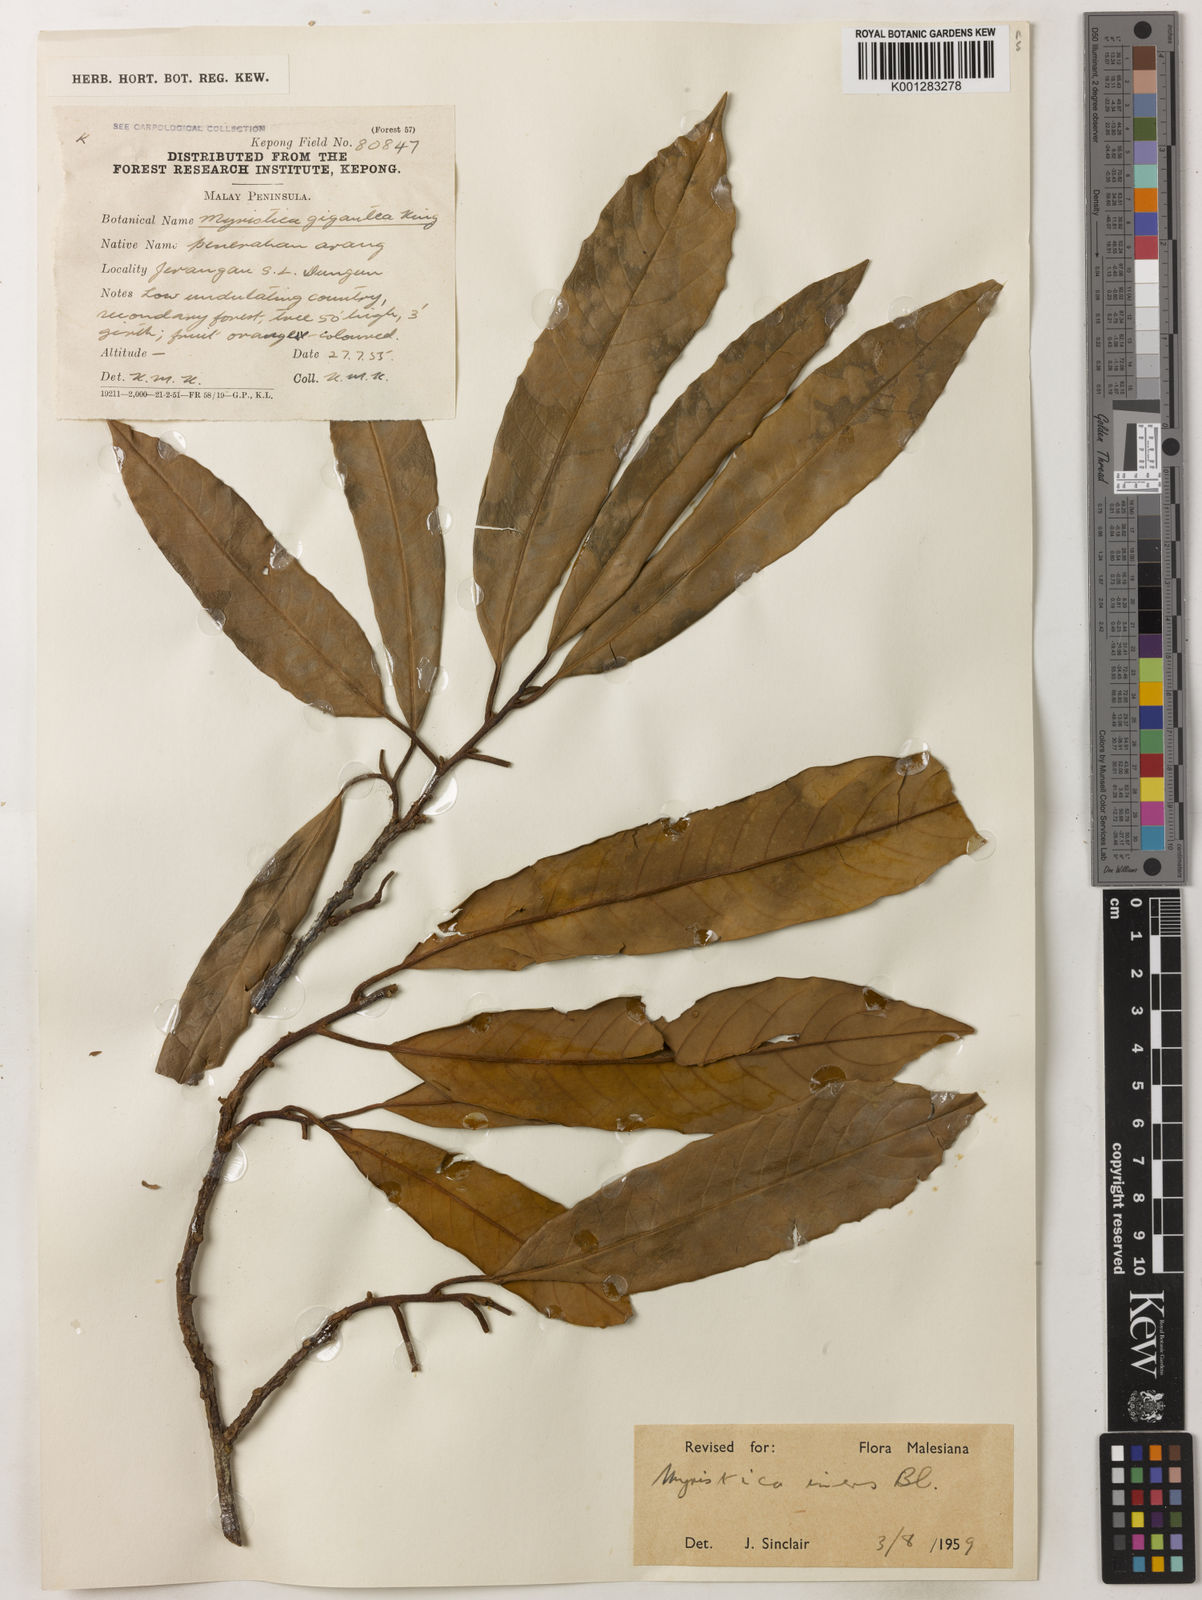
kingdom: Plantae
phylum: Tracheophyta
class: Magnoliopsida
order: Magnoliales
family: Myristicaceae
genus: Myristica
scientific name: Myristica iners
